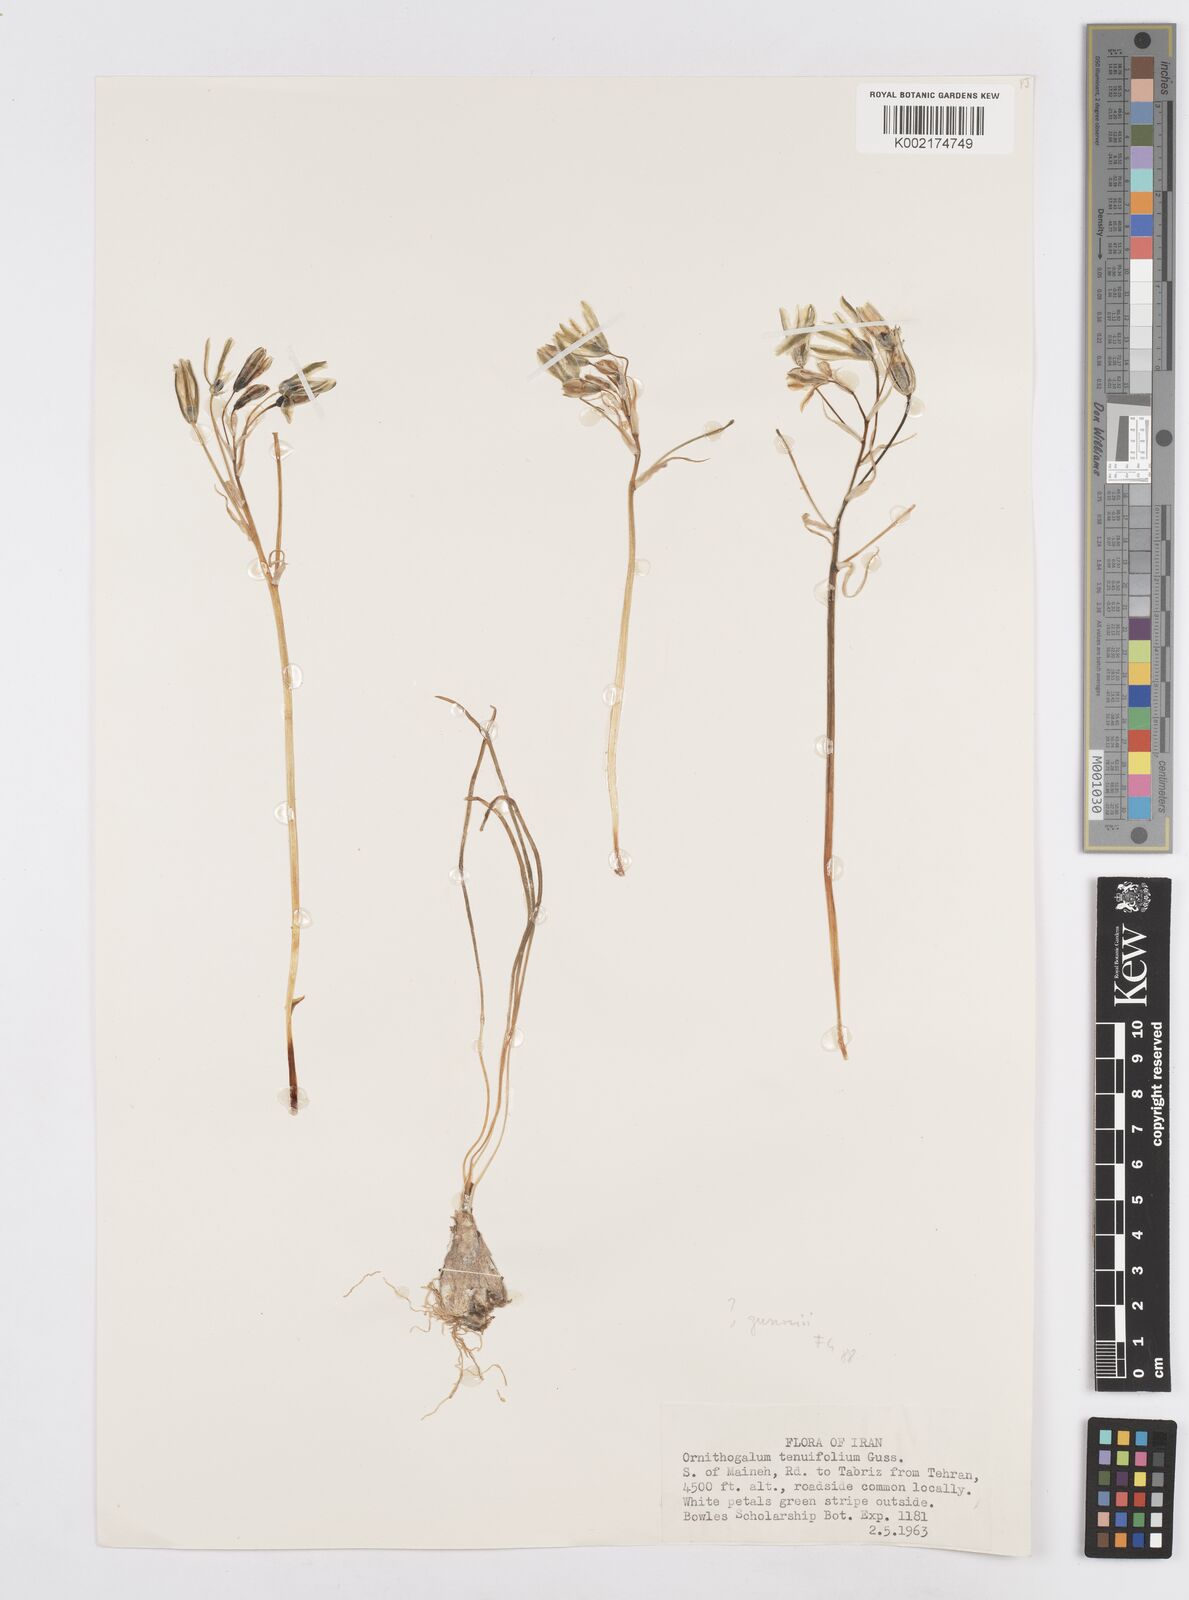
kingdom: Plantae
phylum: Tracheophyta
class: Liliopsida
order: Asparagales
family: Asparagaceae
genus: Ornithogalum
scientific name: Ornithogalum gussonei
